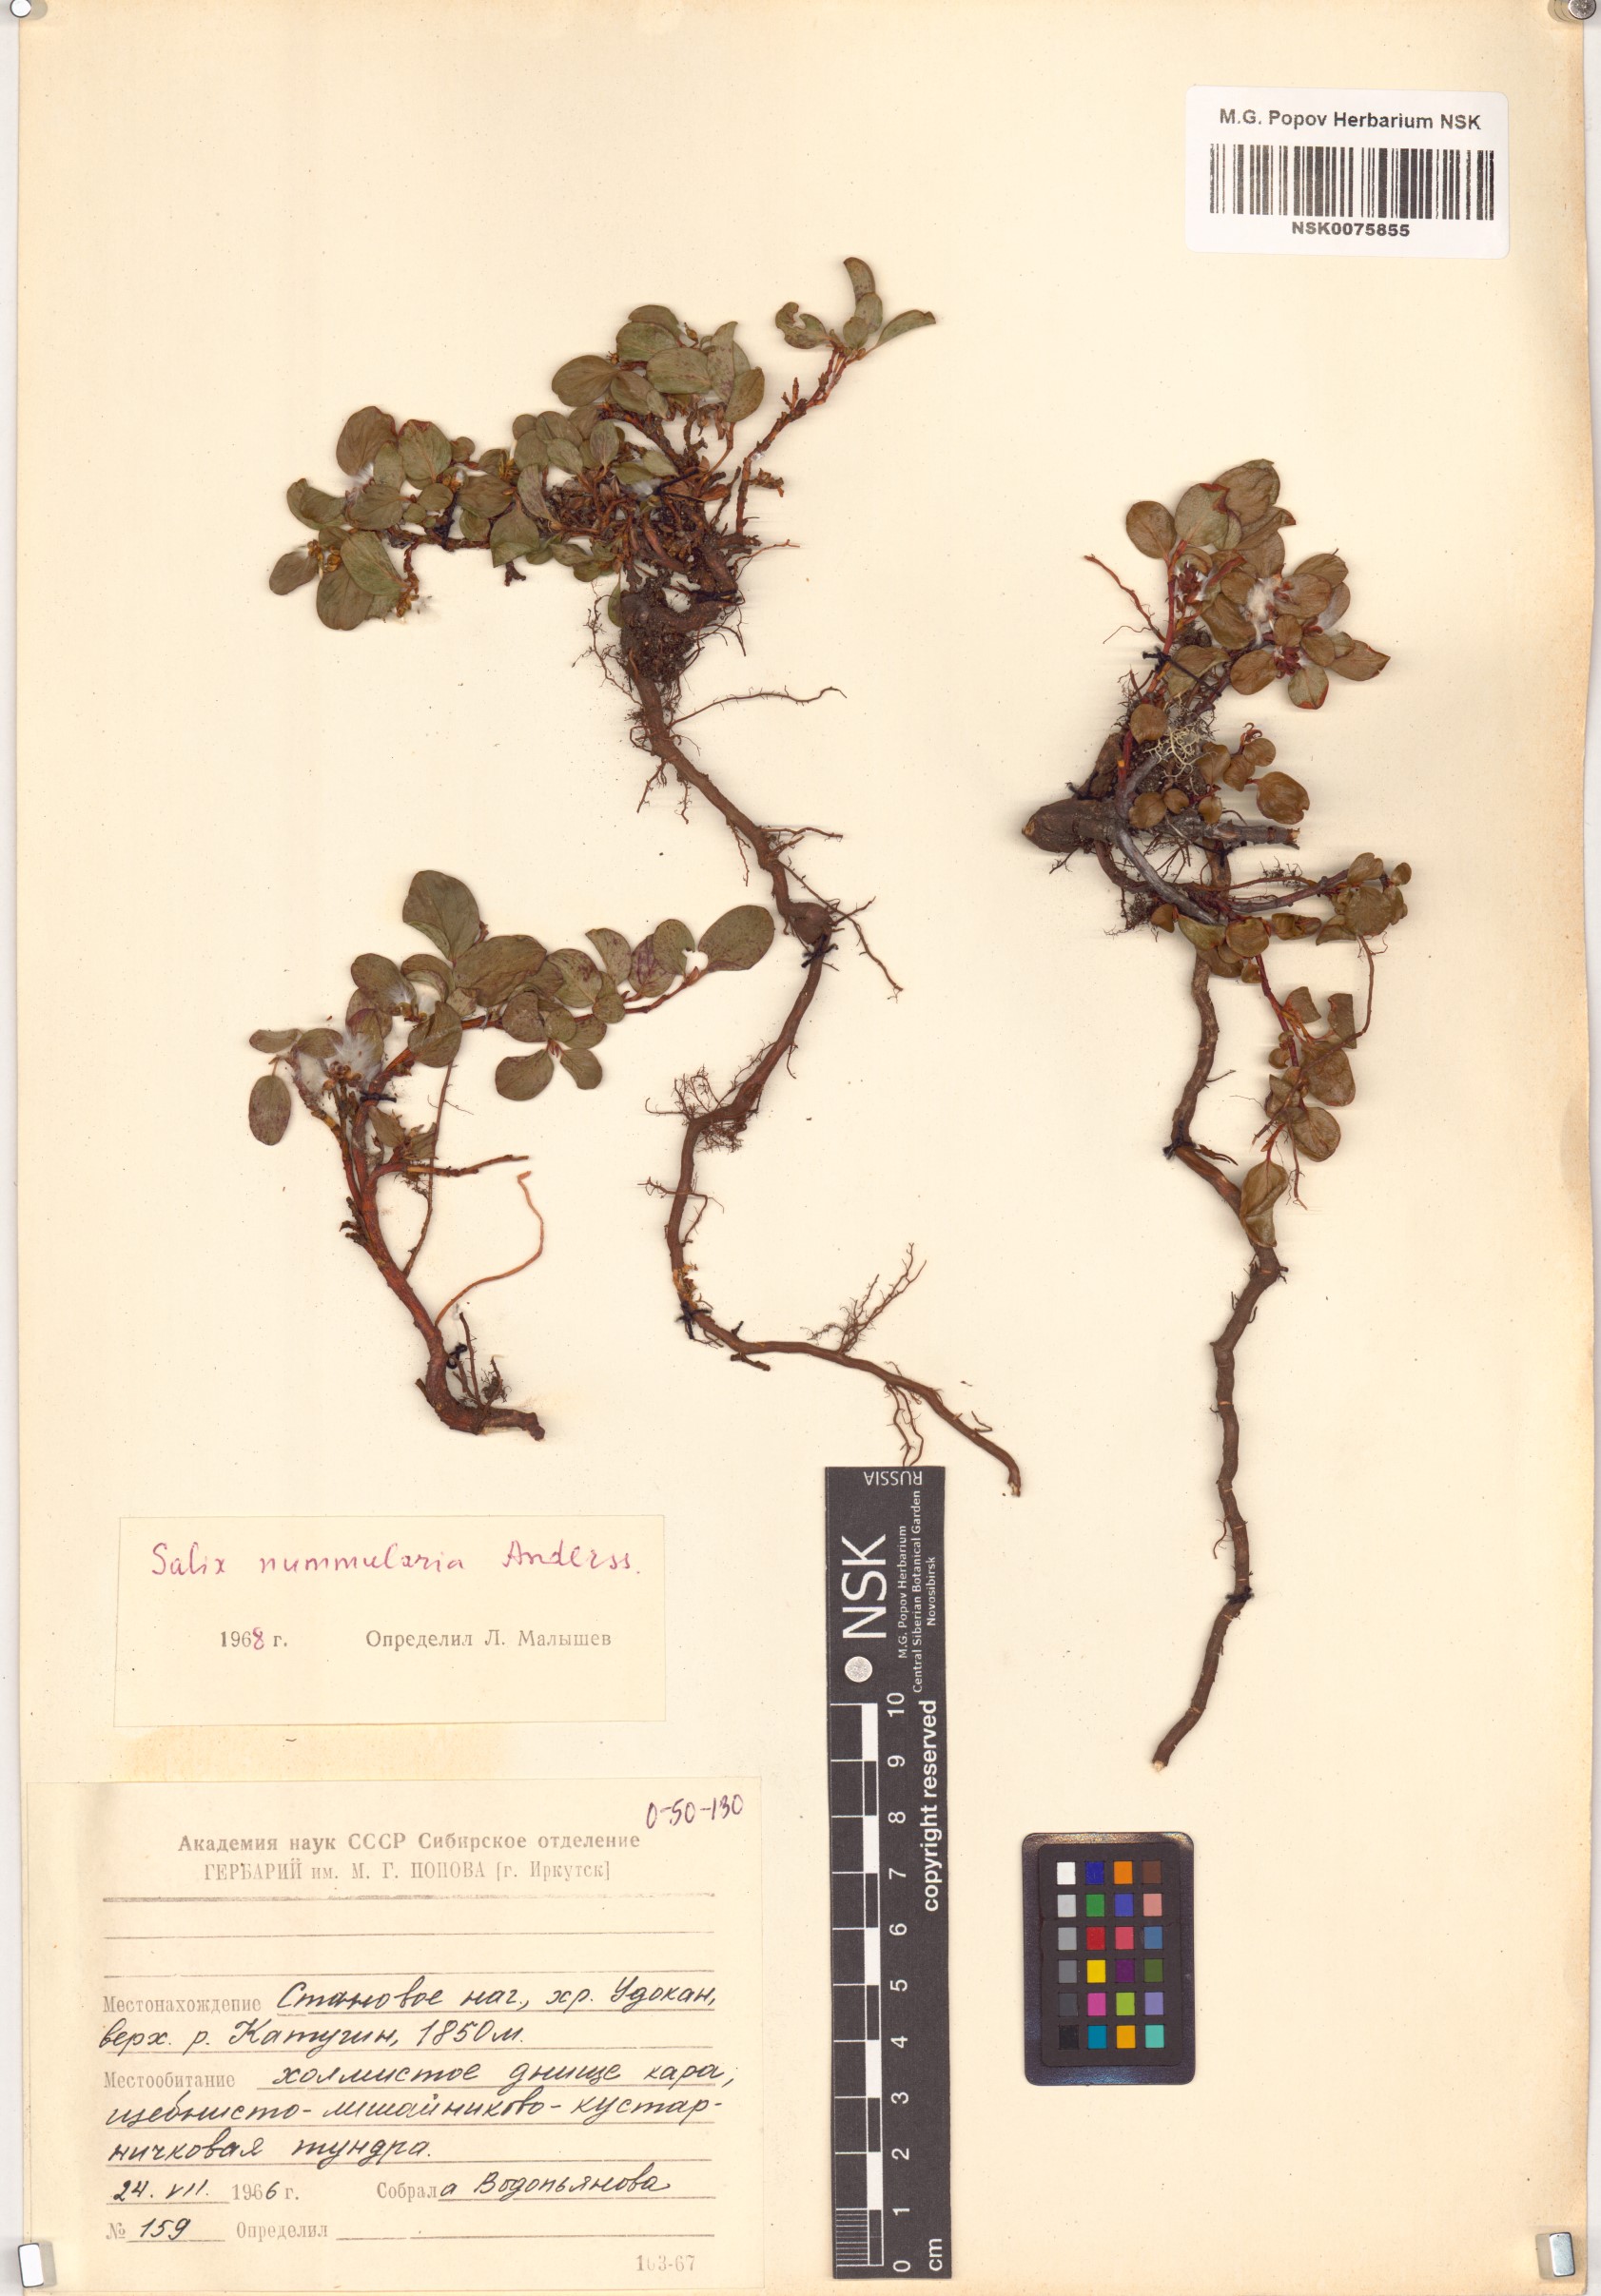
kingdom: Plantae
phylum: Tracheophyta
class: Magnoliopsida
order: Malpighiales
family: Salicaceae
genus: Salix
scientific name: Salix nummularia
